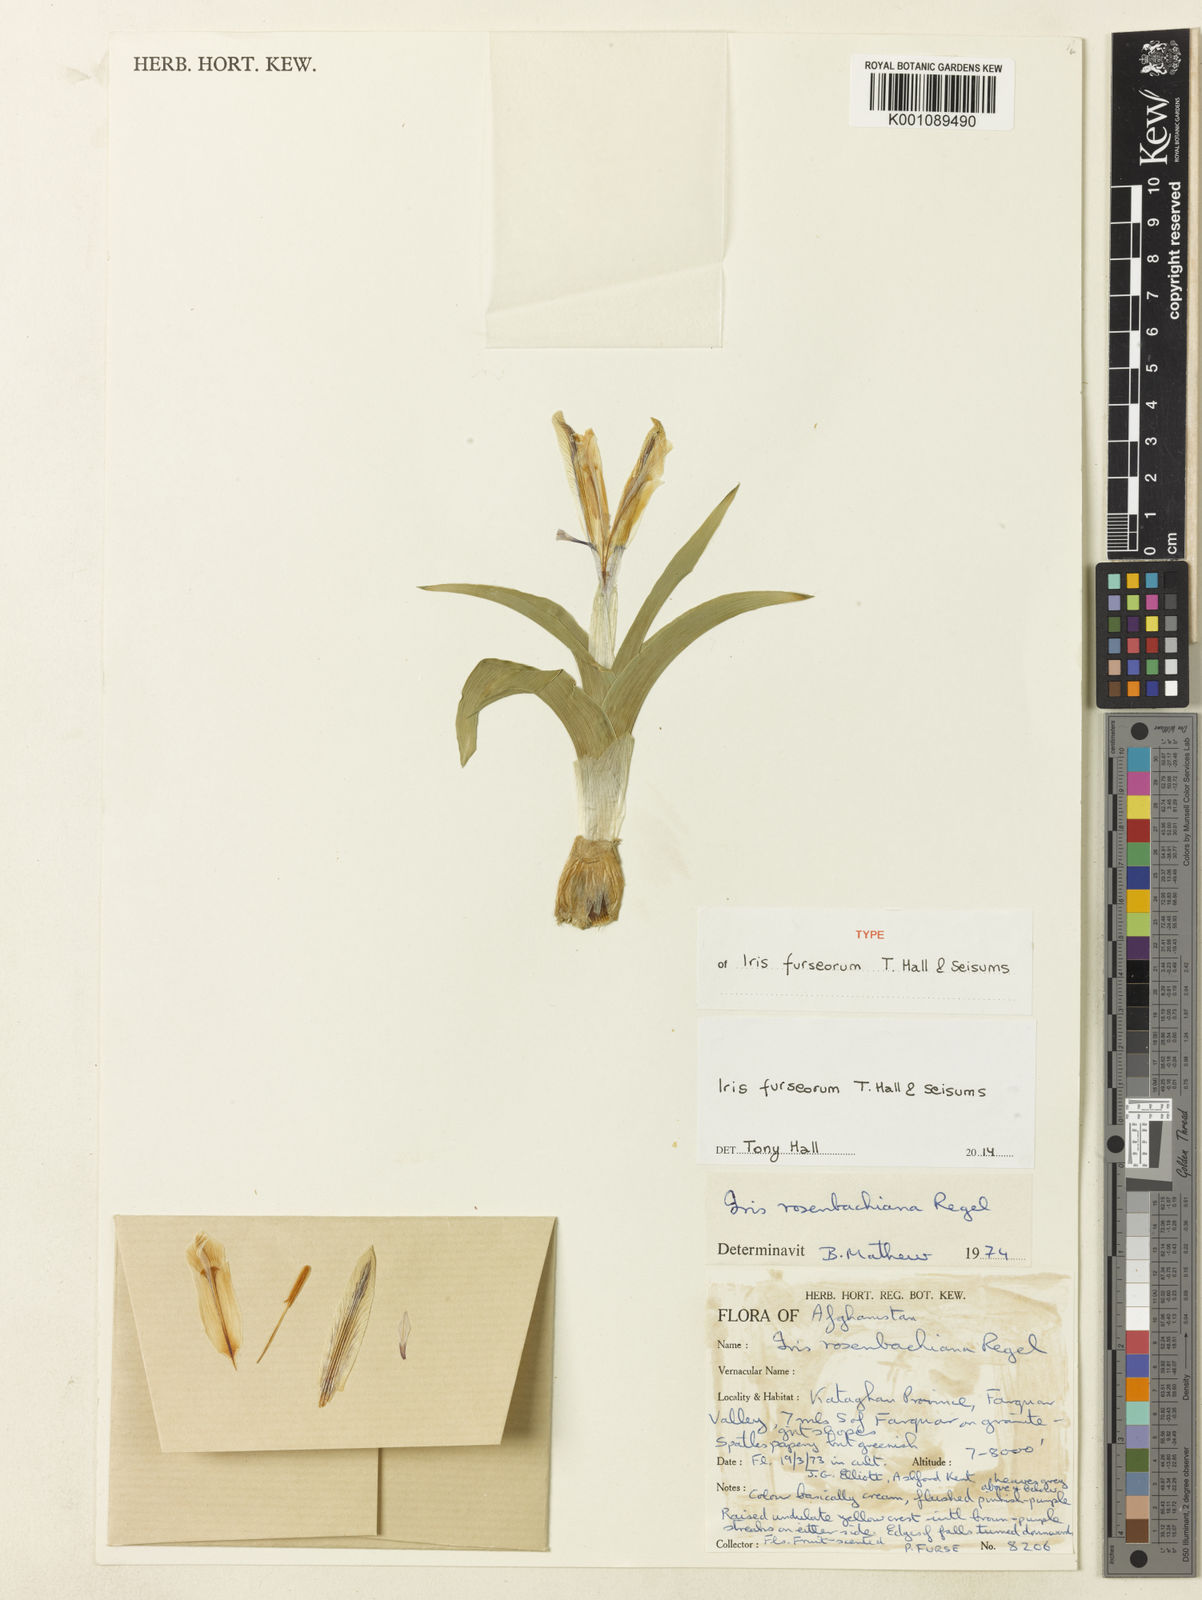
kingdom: Plantae
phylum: Tracheophyta
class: Liliopsida
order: Asparagales
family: Iridaceae
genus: Iris
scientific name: Iris furseorum
